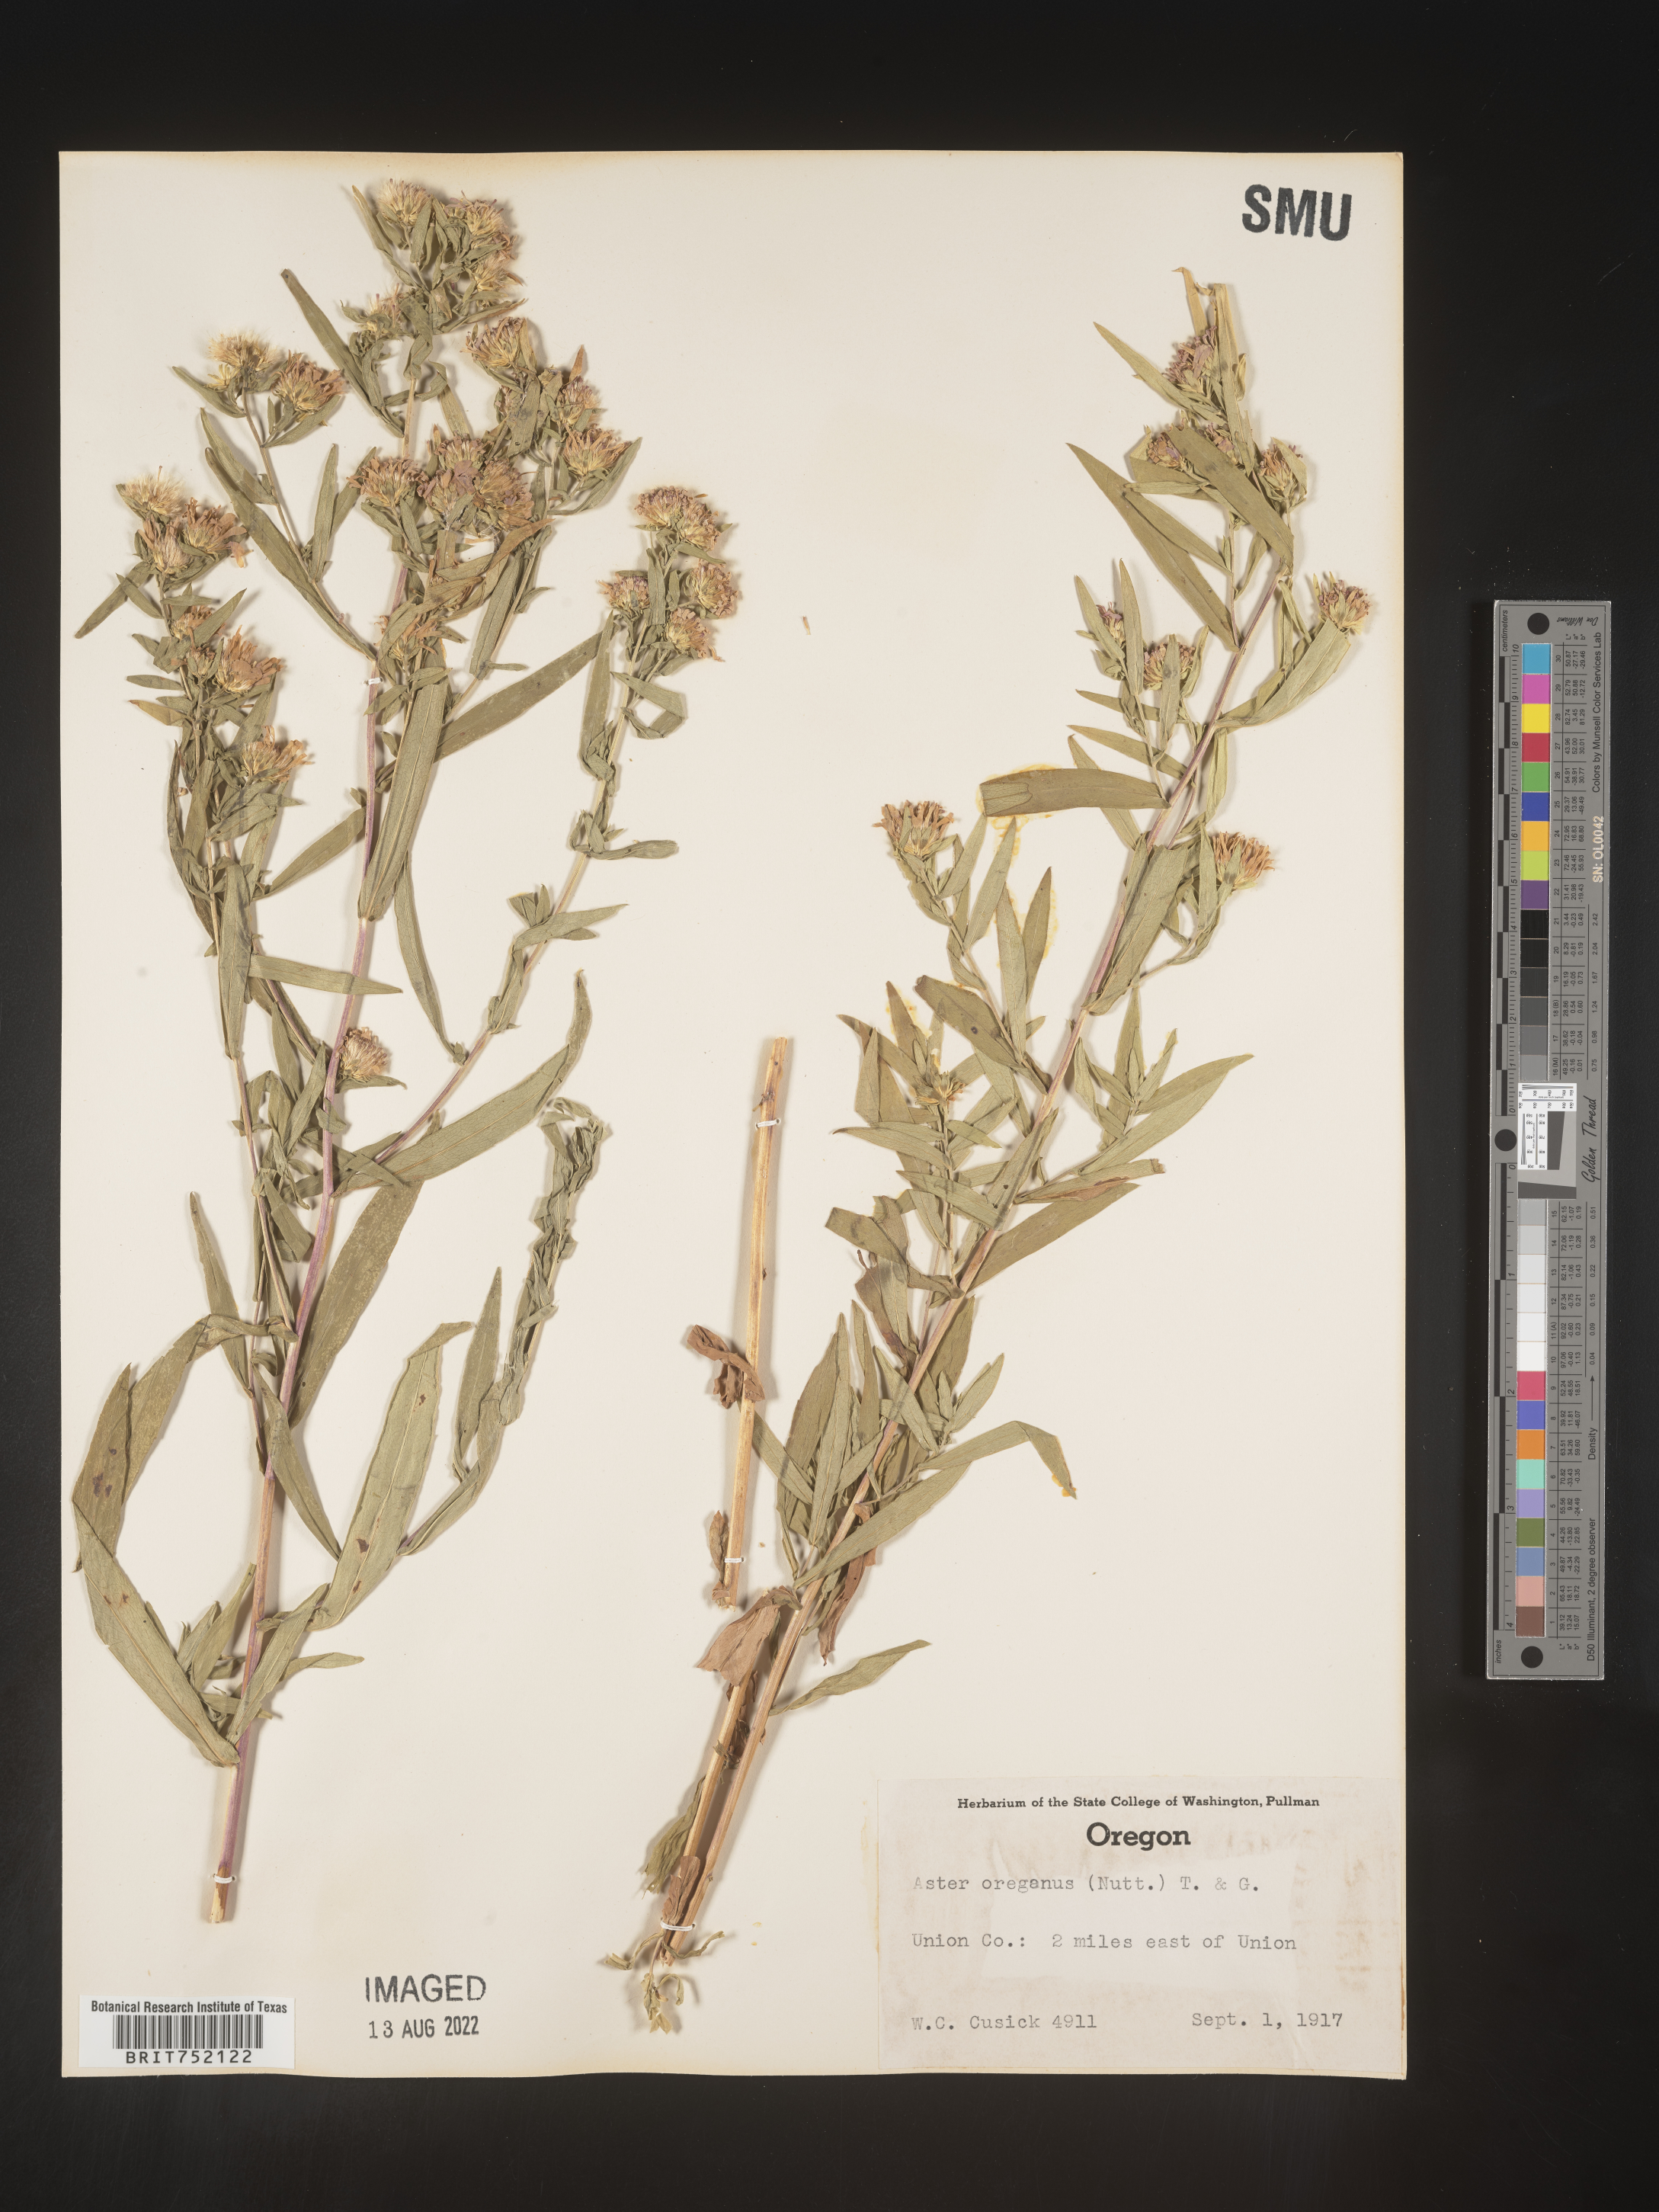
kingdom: Plantae
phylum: Tracheophyta
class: Magnoliopsida
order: Asterales
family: Asteraceae
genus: Sericocarpus
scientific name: Sericocarpus oregonensis
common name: Oregon white-top aster
